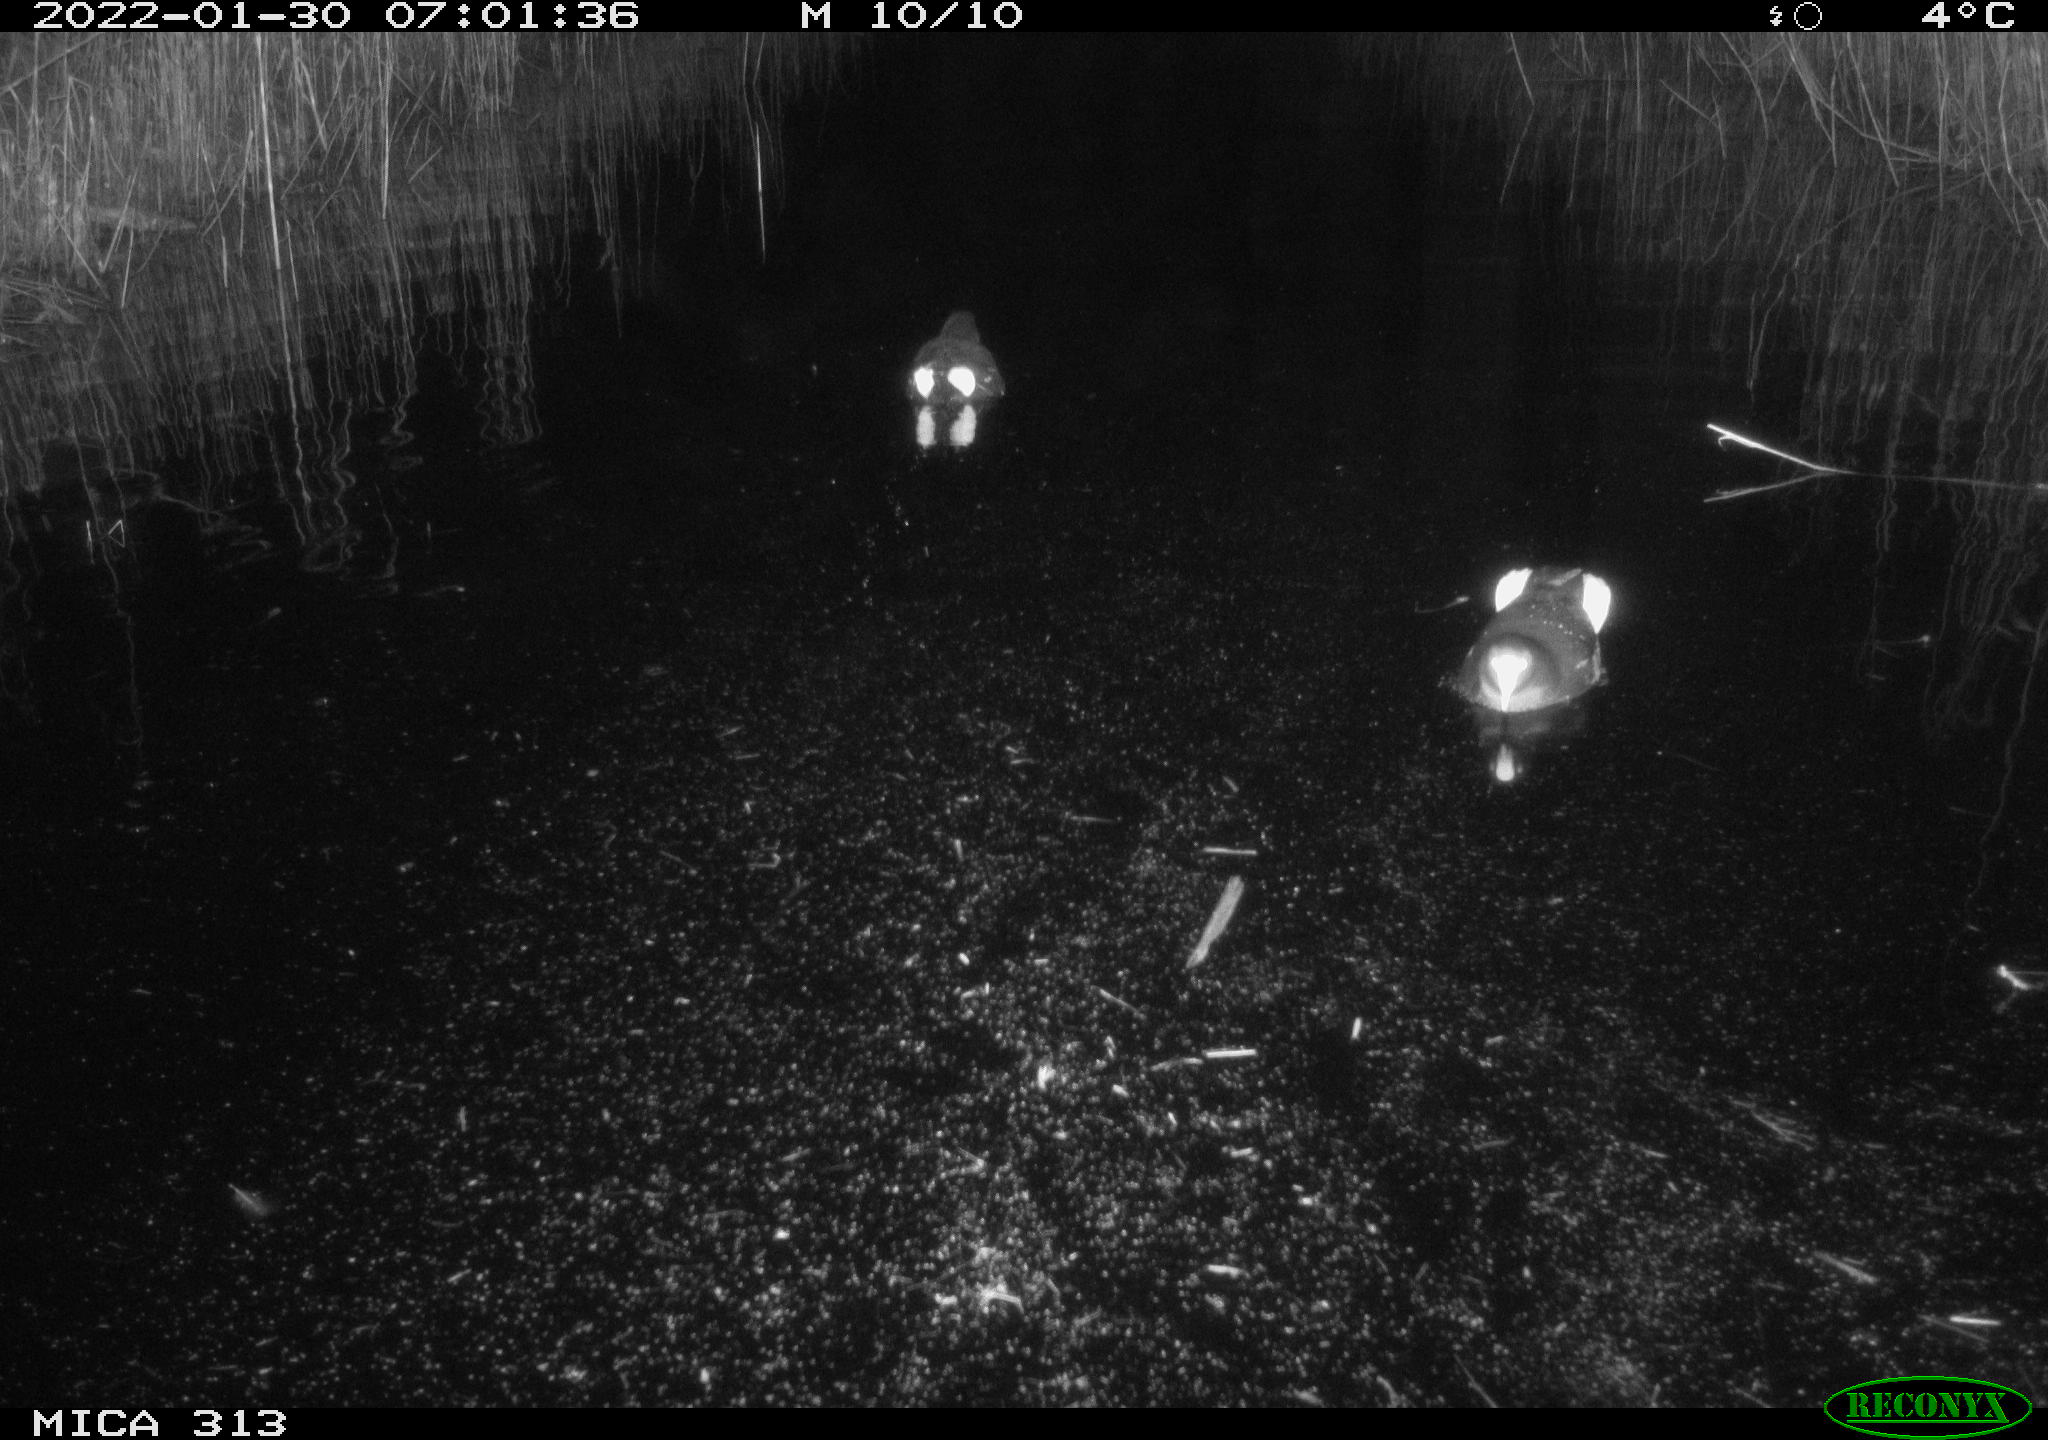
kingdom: Animalia
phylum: Chordata
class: Aves
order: Anseriformes
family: Anatidae
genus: Anas
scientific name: Anas
